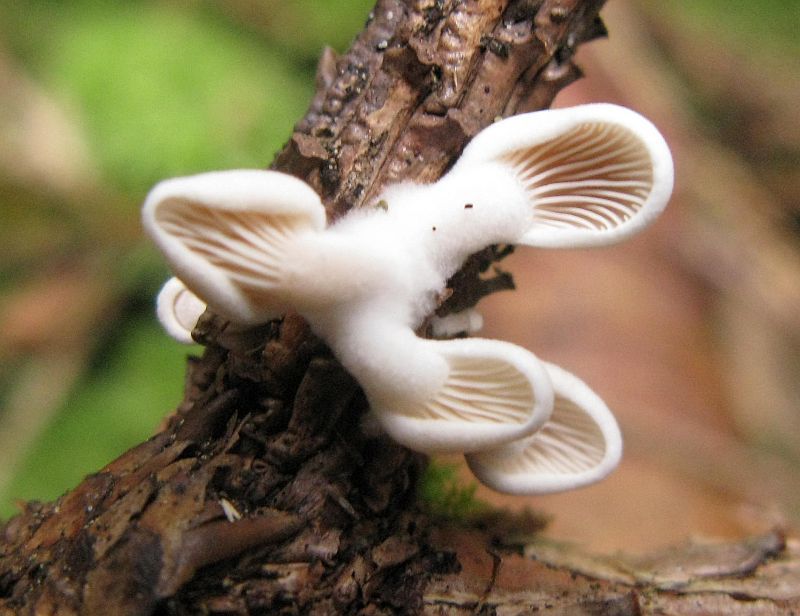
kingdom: Fungi
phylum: Basidiomycota
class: Agaricomycetes
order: Agaricales
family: Mycenaceae
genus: Panellus
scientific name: Panellus mitis
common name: mild epaulethat
